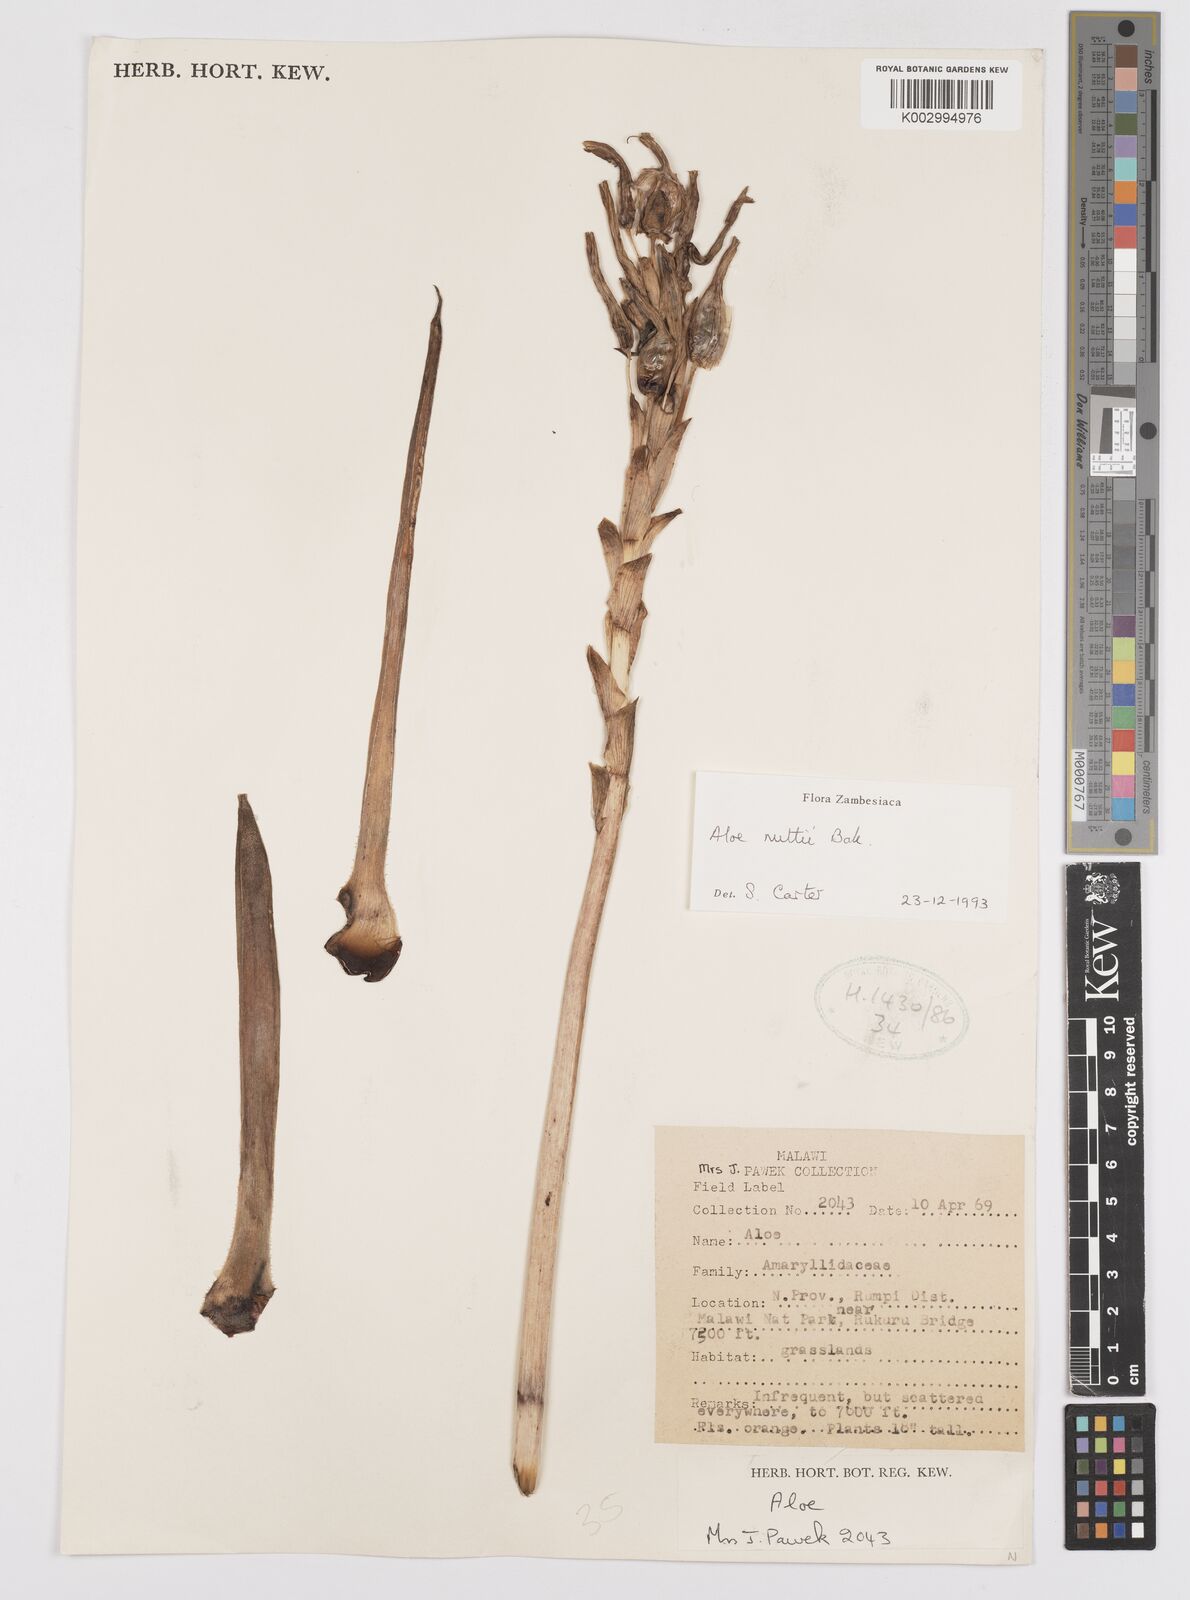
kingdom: Plantae
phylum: Tracheophyta
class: Liliopsida
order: Asparagales
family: Asphodelaceae
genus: Aloe
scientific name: Aloe nuttii
